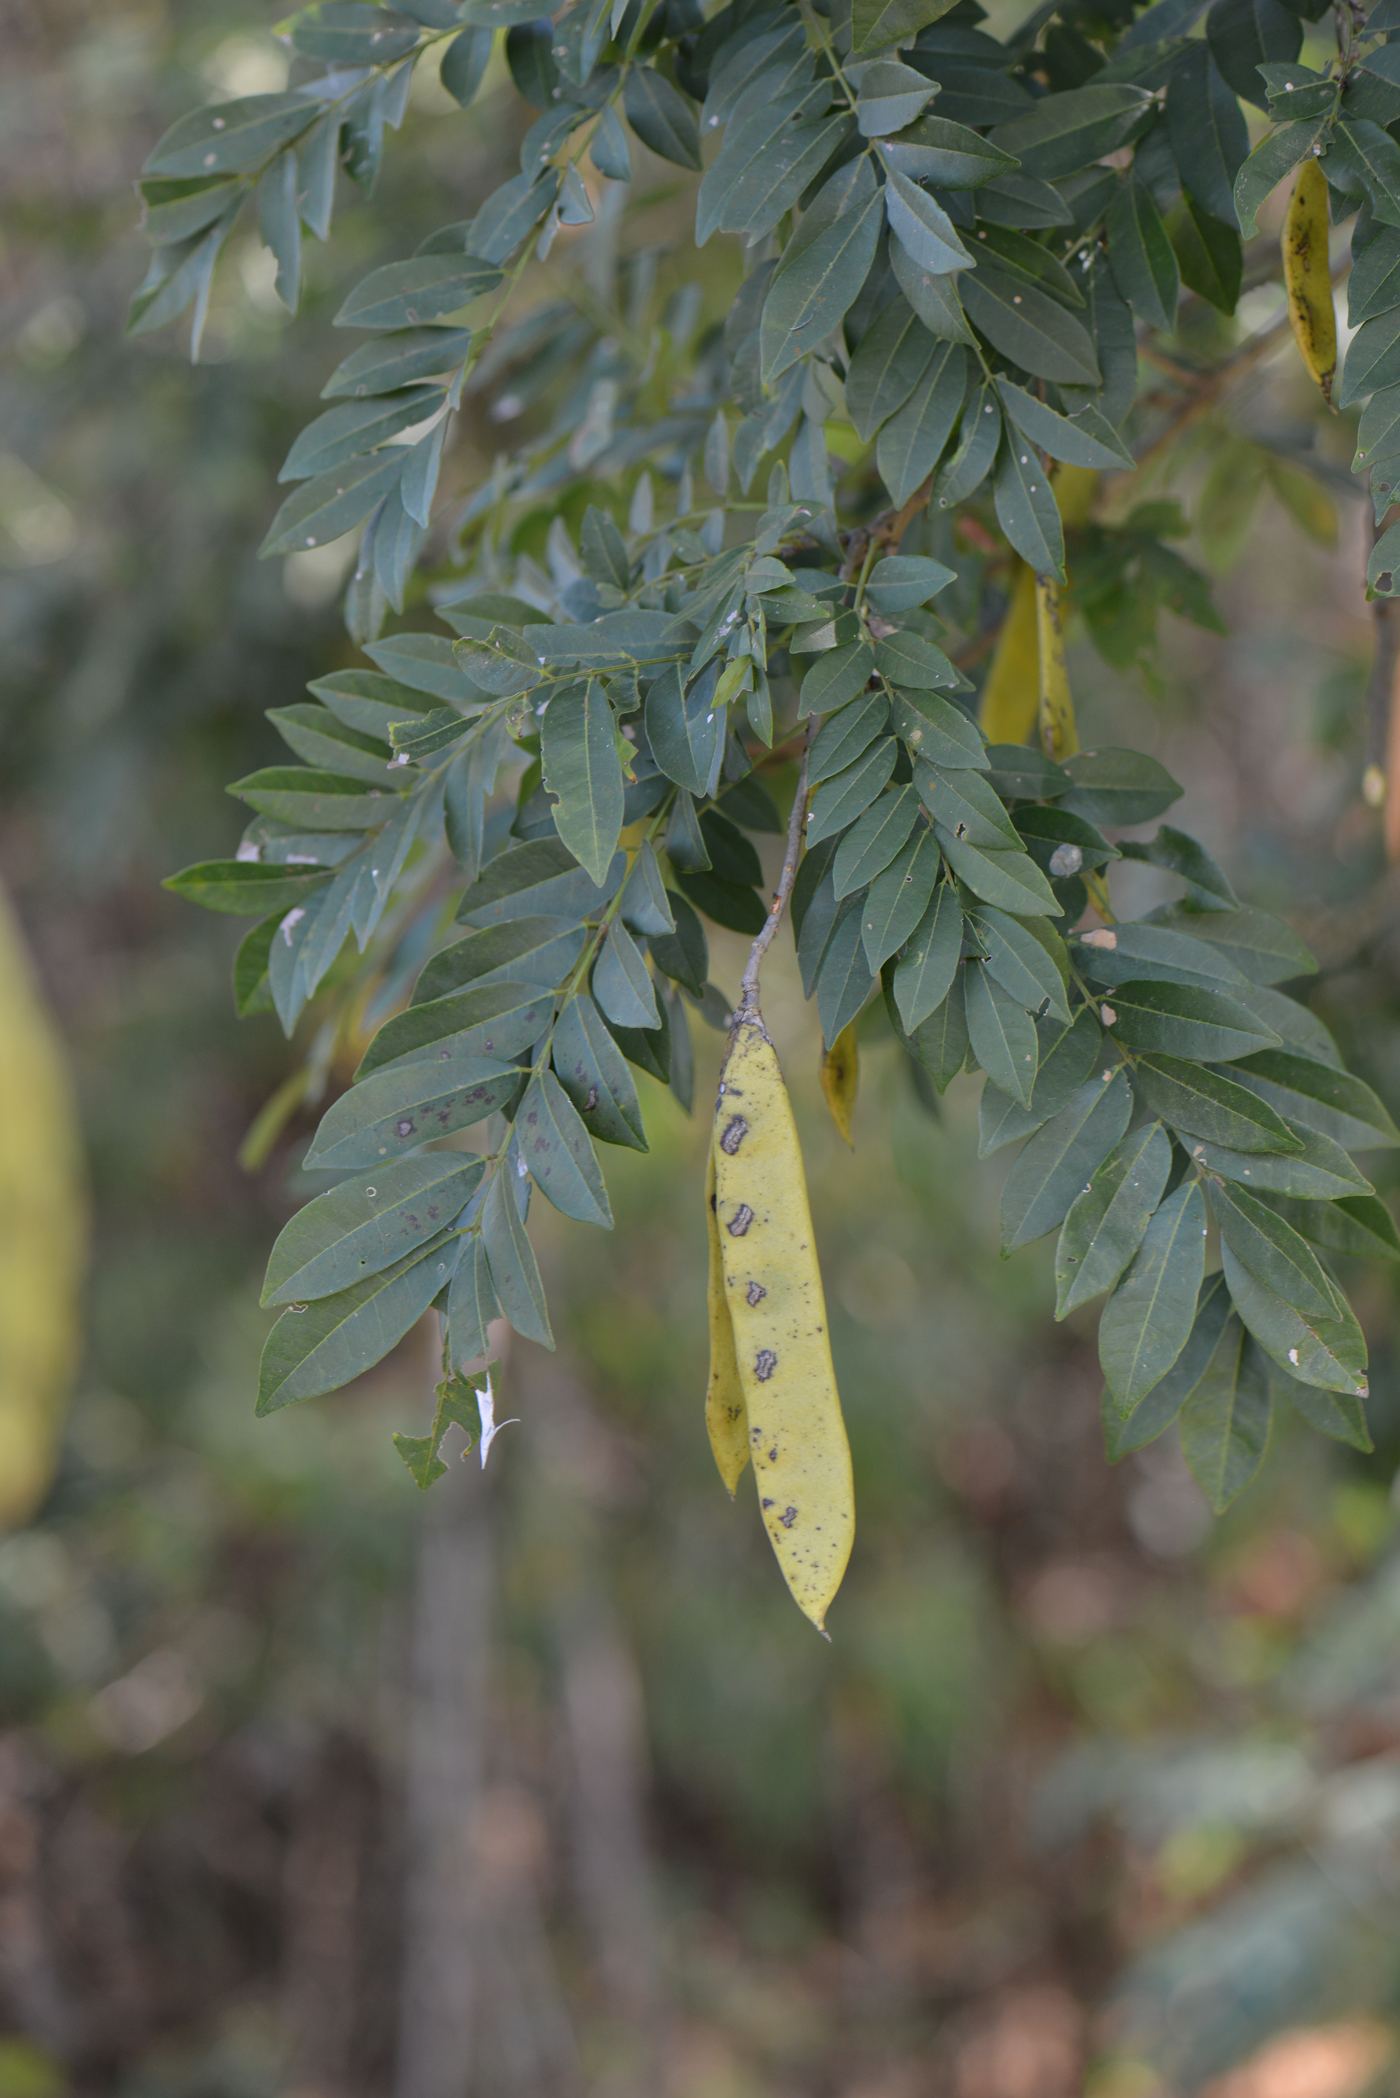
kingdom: Plantae
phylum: Tracheophyta
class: Magnoliopsida
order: Fabales
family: Fabaceae
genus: Dalbergia
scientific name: Dalbergia
